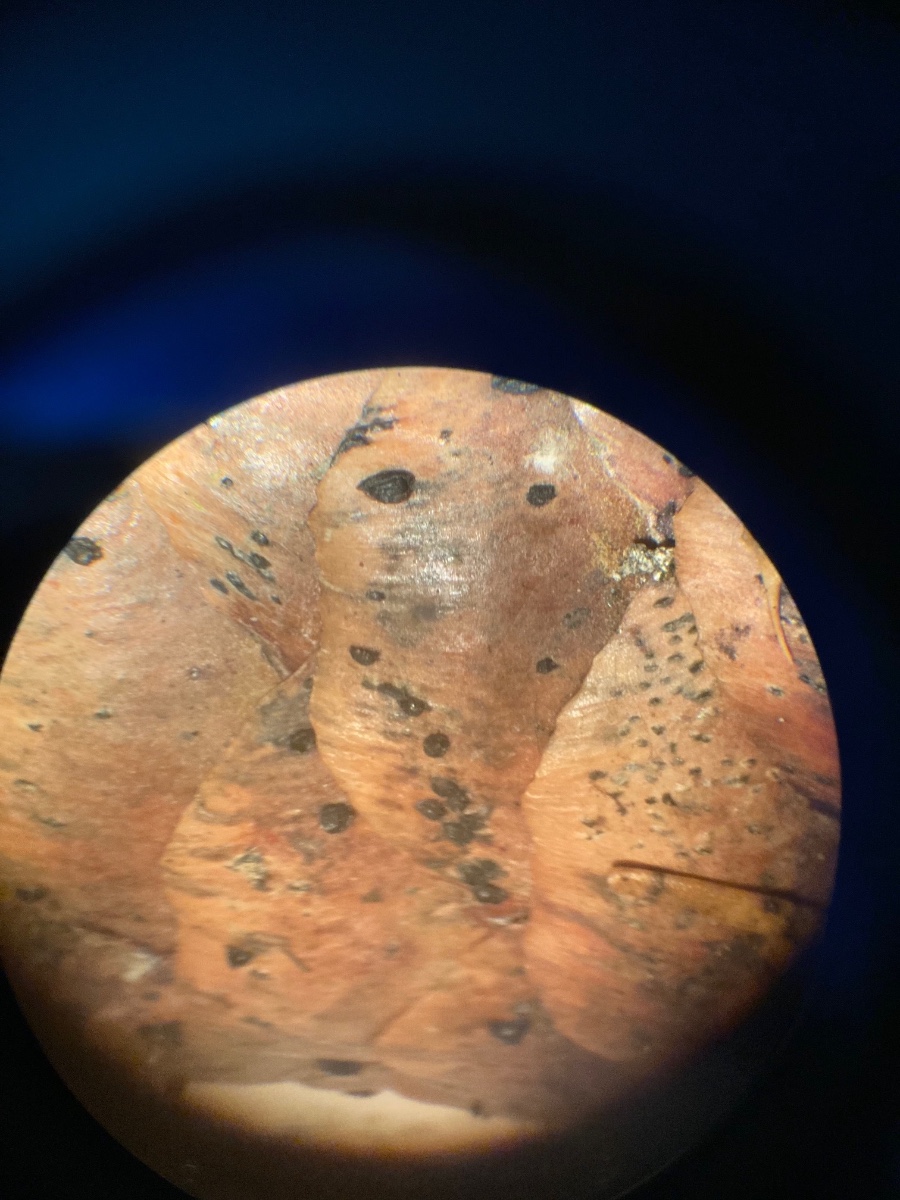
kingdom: Fungi
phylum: Ascomycota
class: Dothideomycetes
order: Pleosporales
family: Melanommataceae
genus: Phragmotrichum
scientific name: Phragmotrichum chailletii
